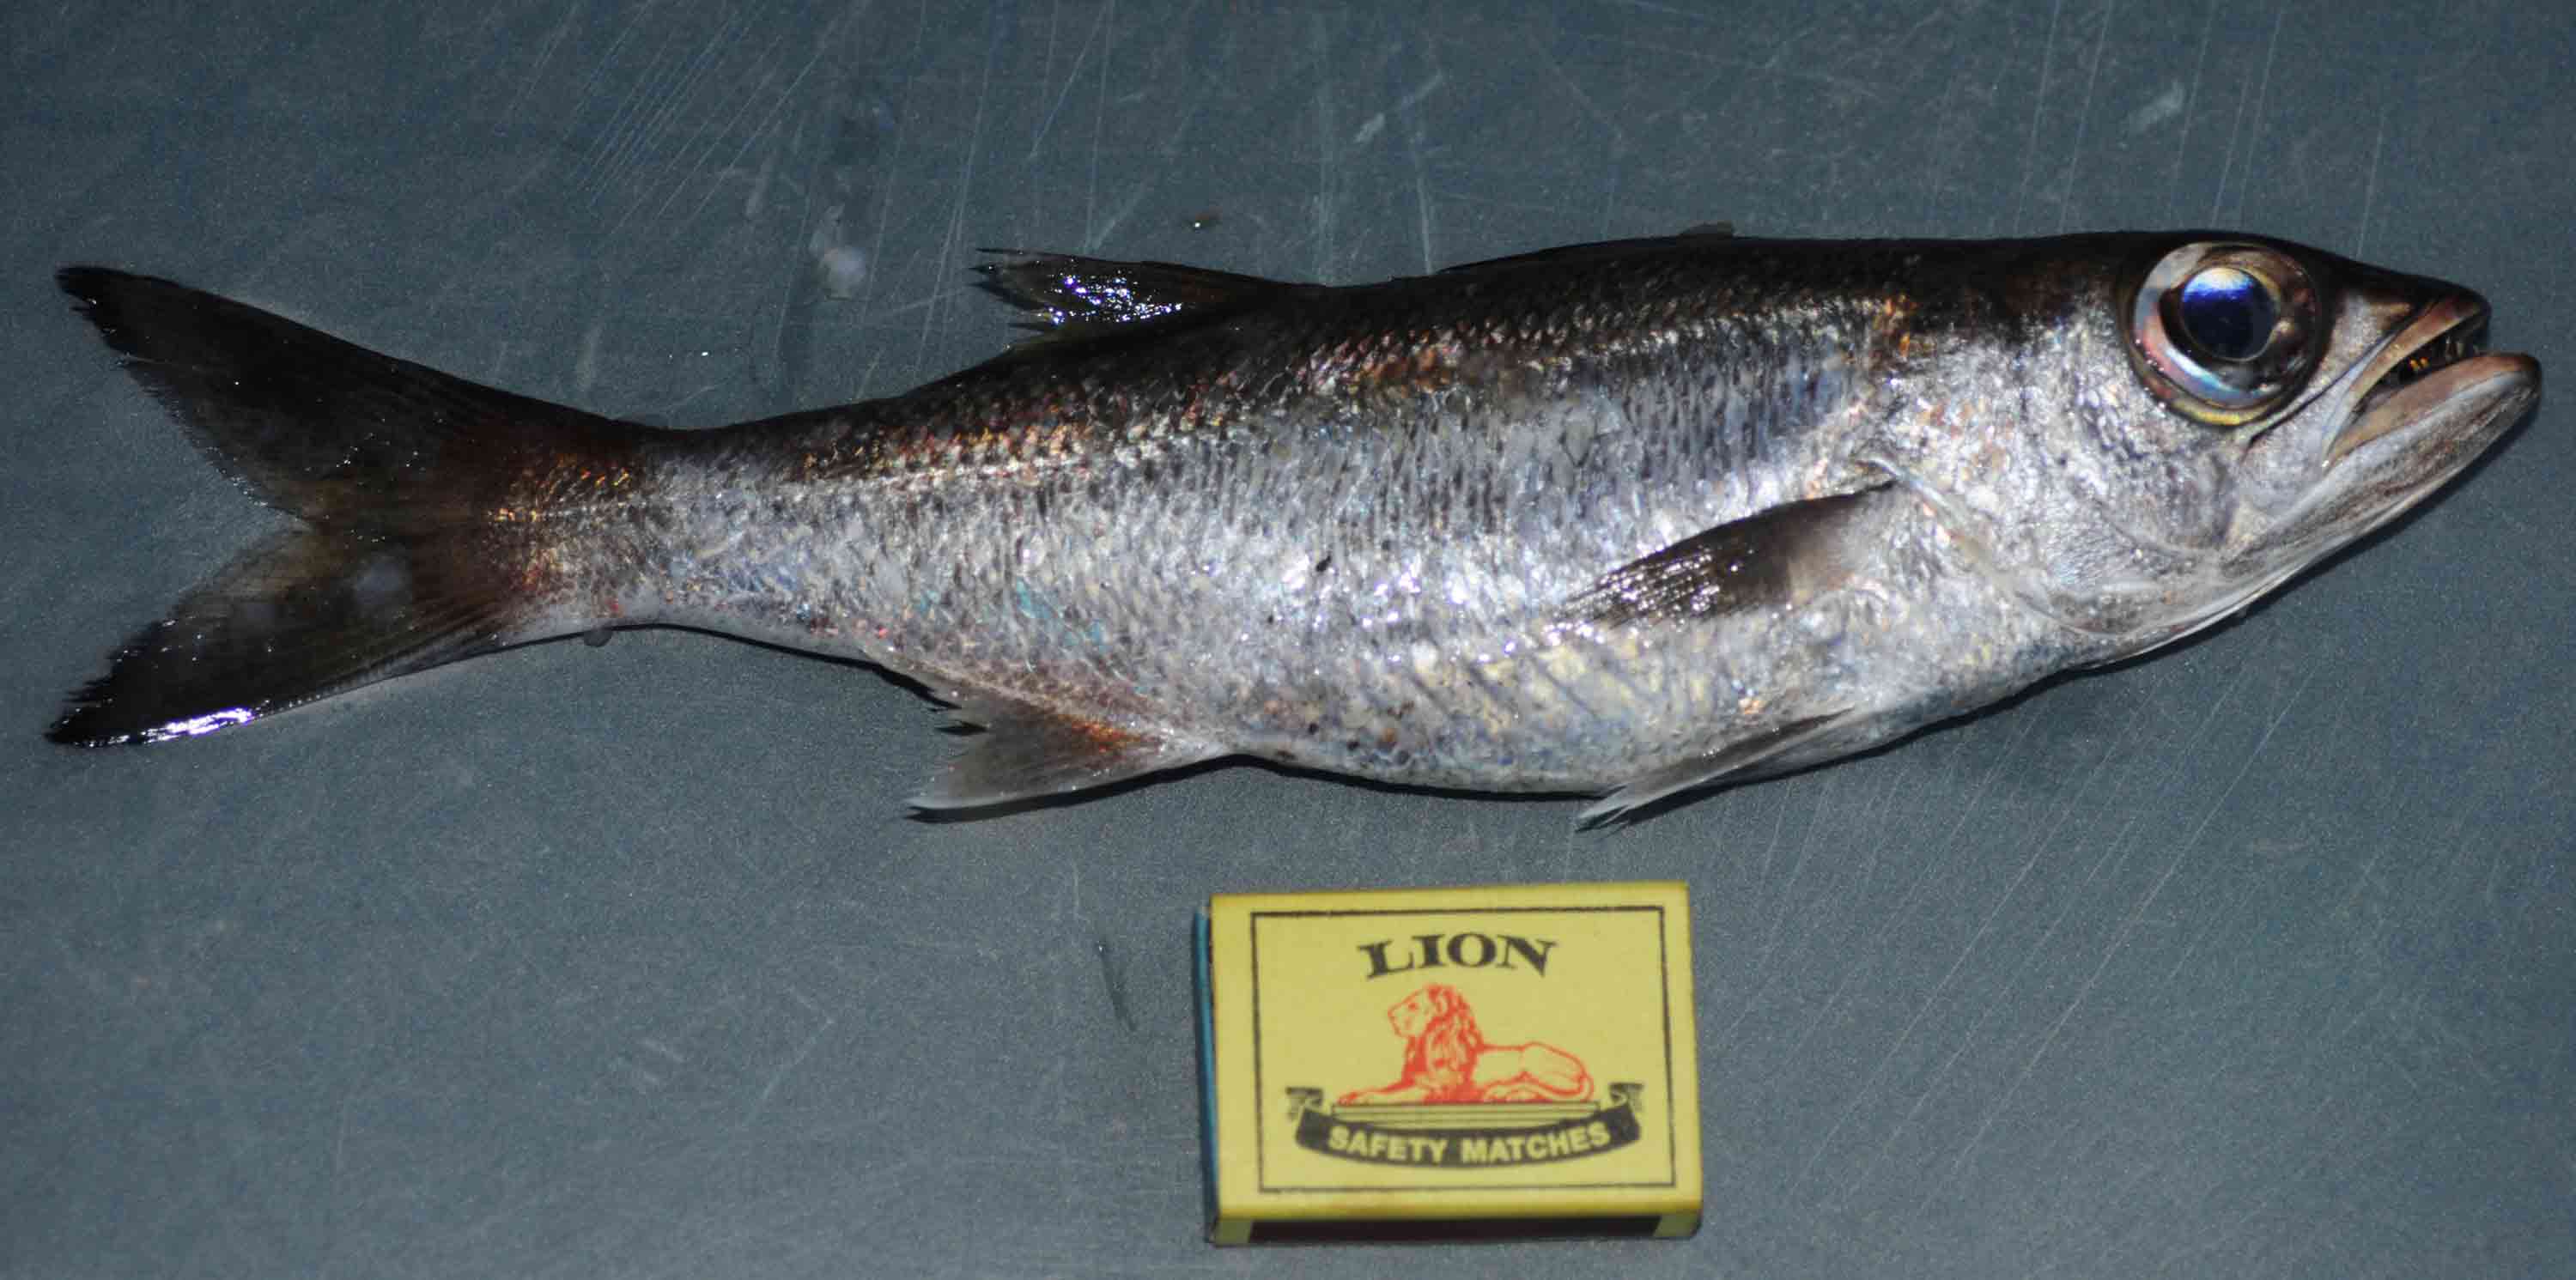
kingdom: Animalia
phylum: Chordata
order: Perciformes
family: Scombropidae
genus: Scombrops
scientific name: Scombrops boops
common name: Gnomefish
